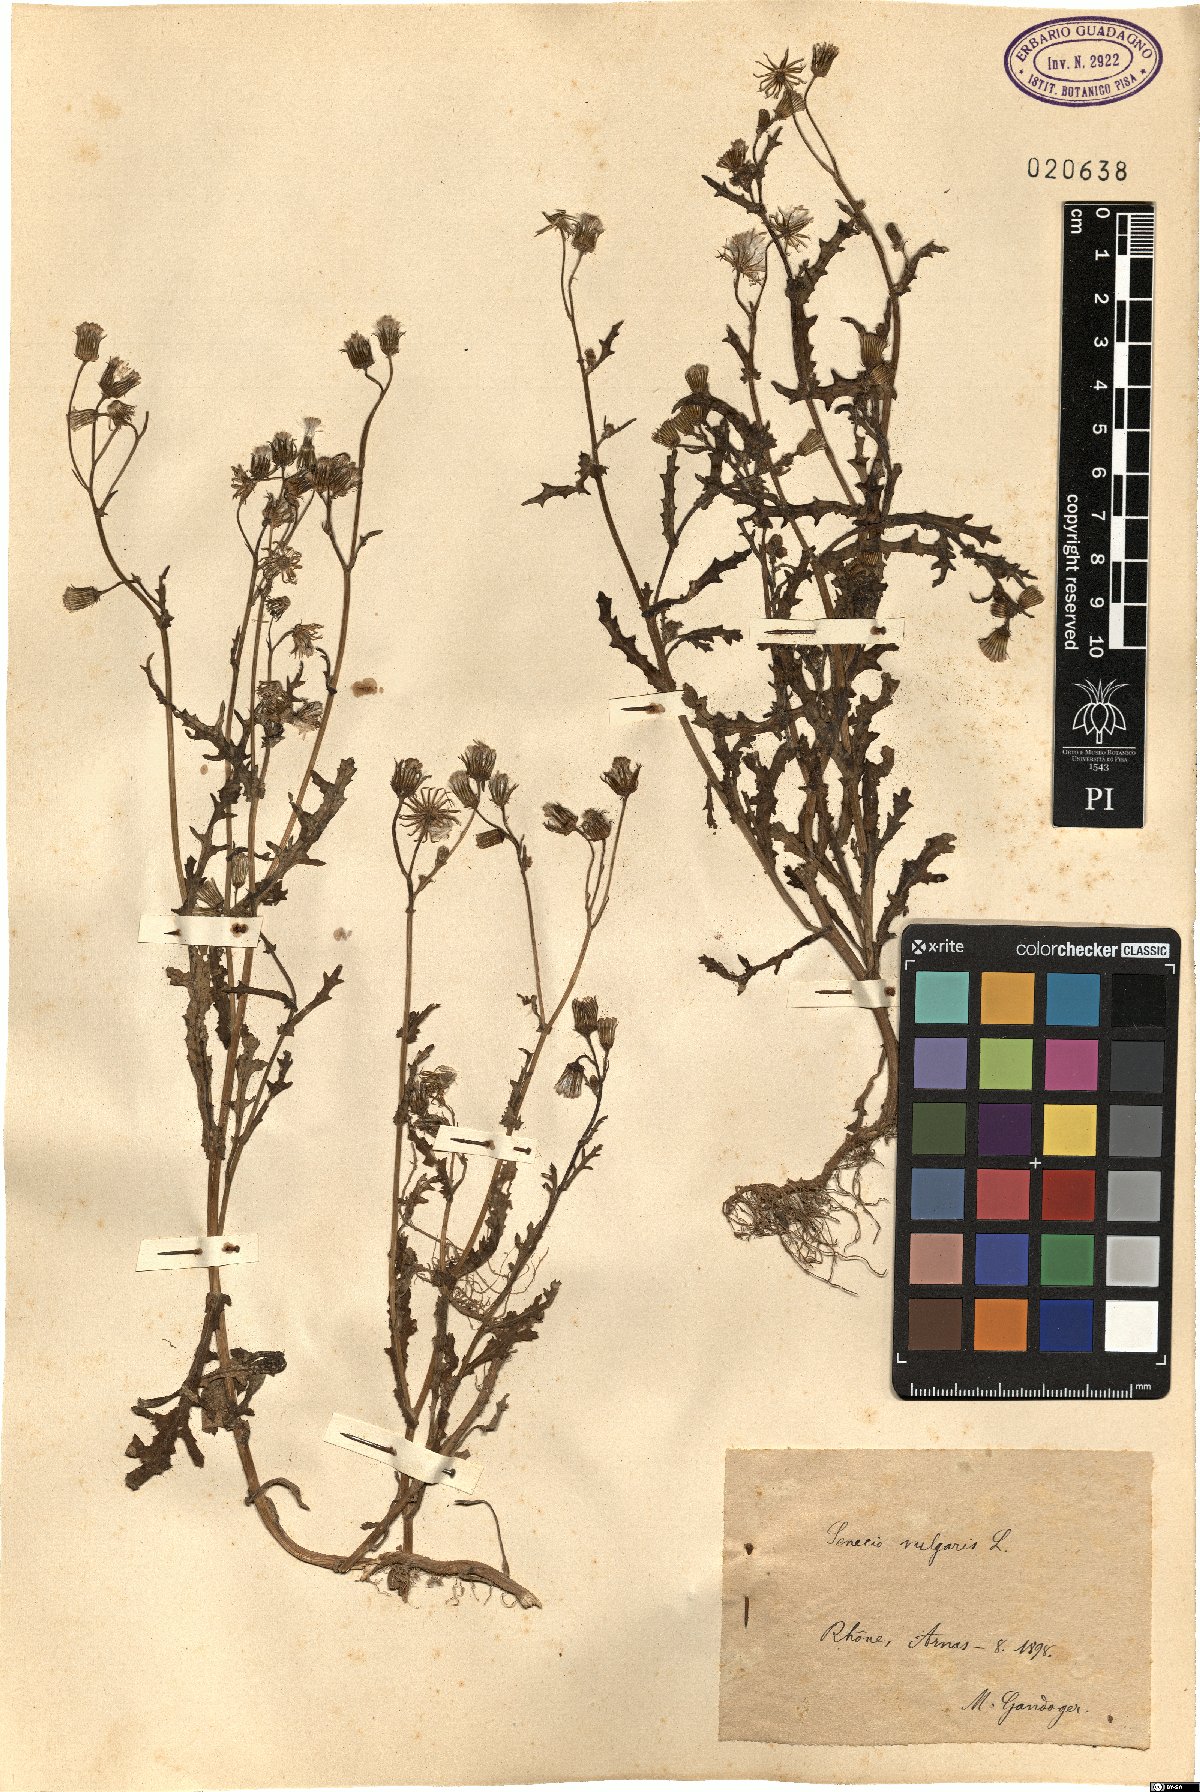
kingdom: Plantae
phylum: Tracheophyta
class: Magnoliopsida
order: Asterales
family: Asteraceae
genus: Senecio
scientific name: Senecio vulgaris
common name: Old-man-in-the-spring
